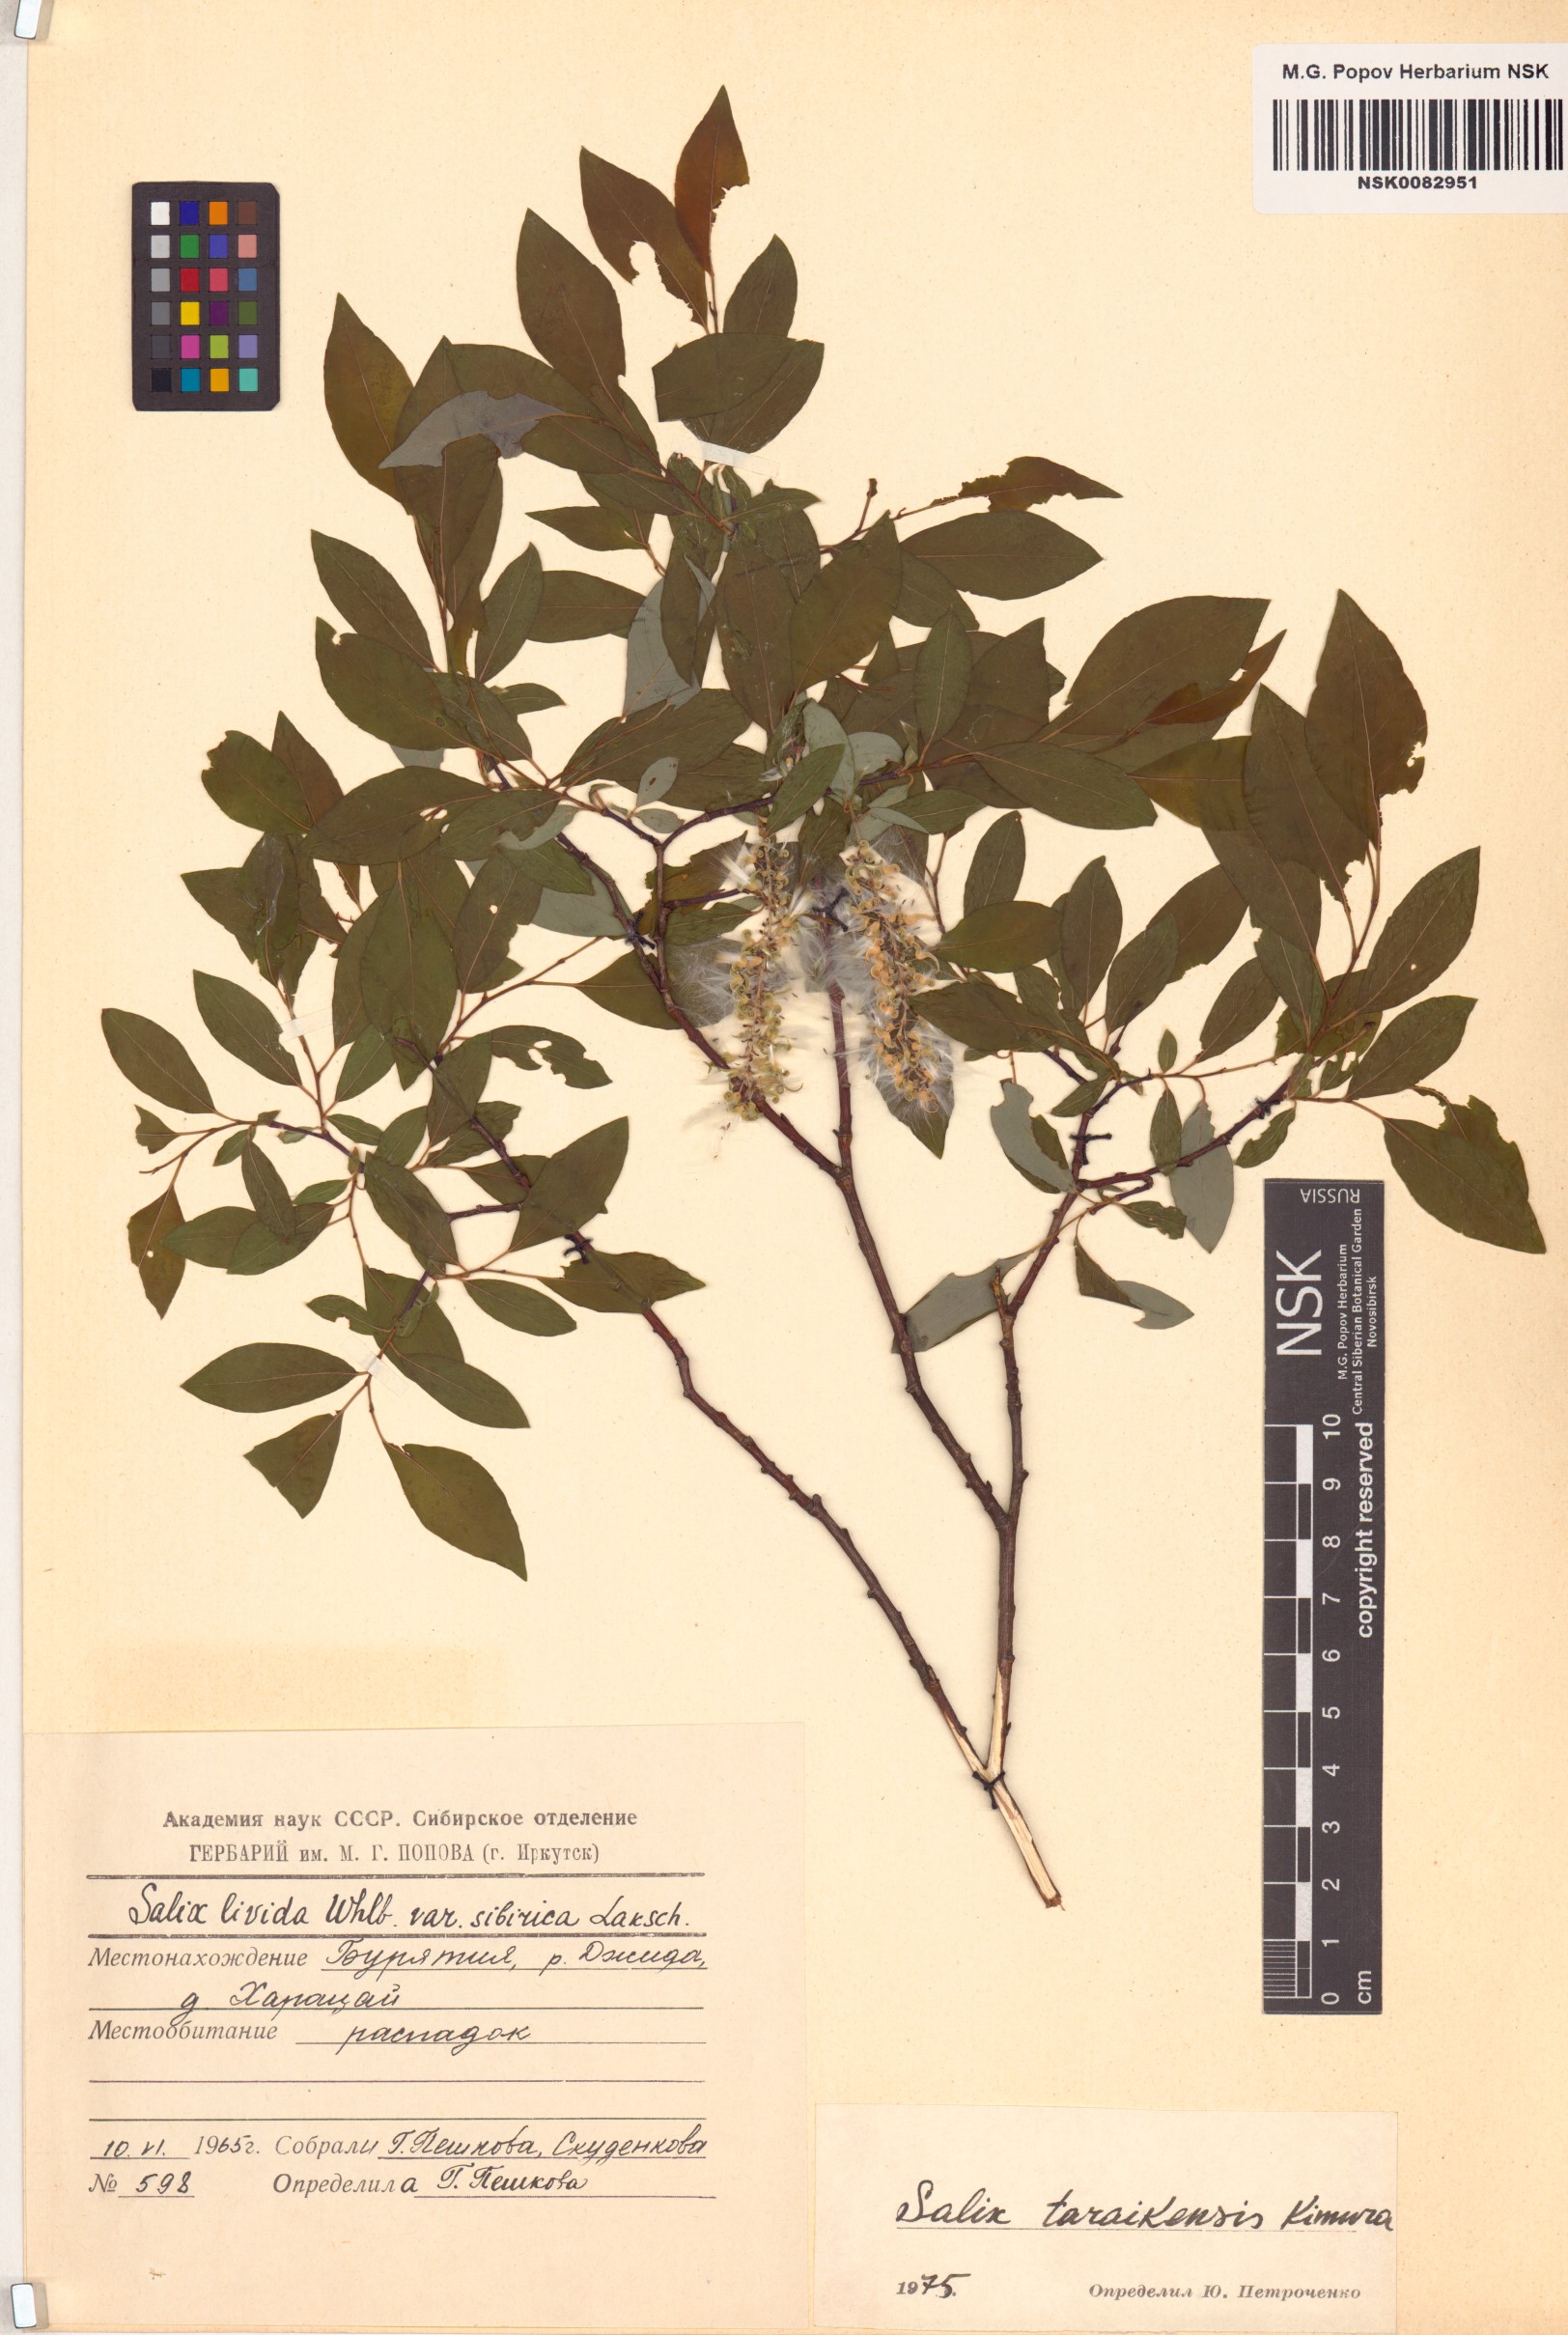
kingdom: Plantae
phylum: Tracheophyta
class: Magnoliopsida
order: Malpighiales
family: Salicaceae
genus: Salix
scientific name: Salix taraikensis
